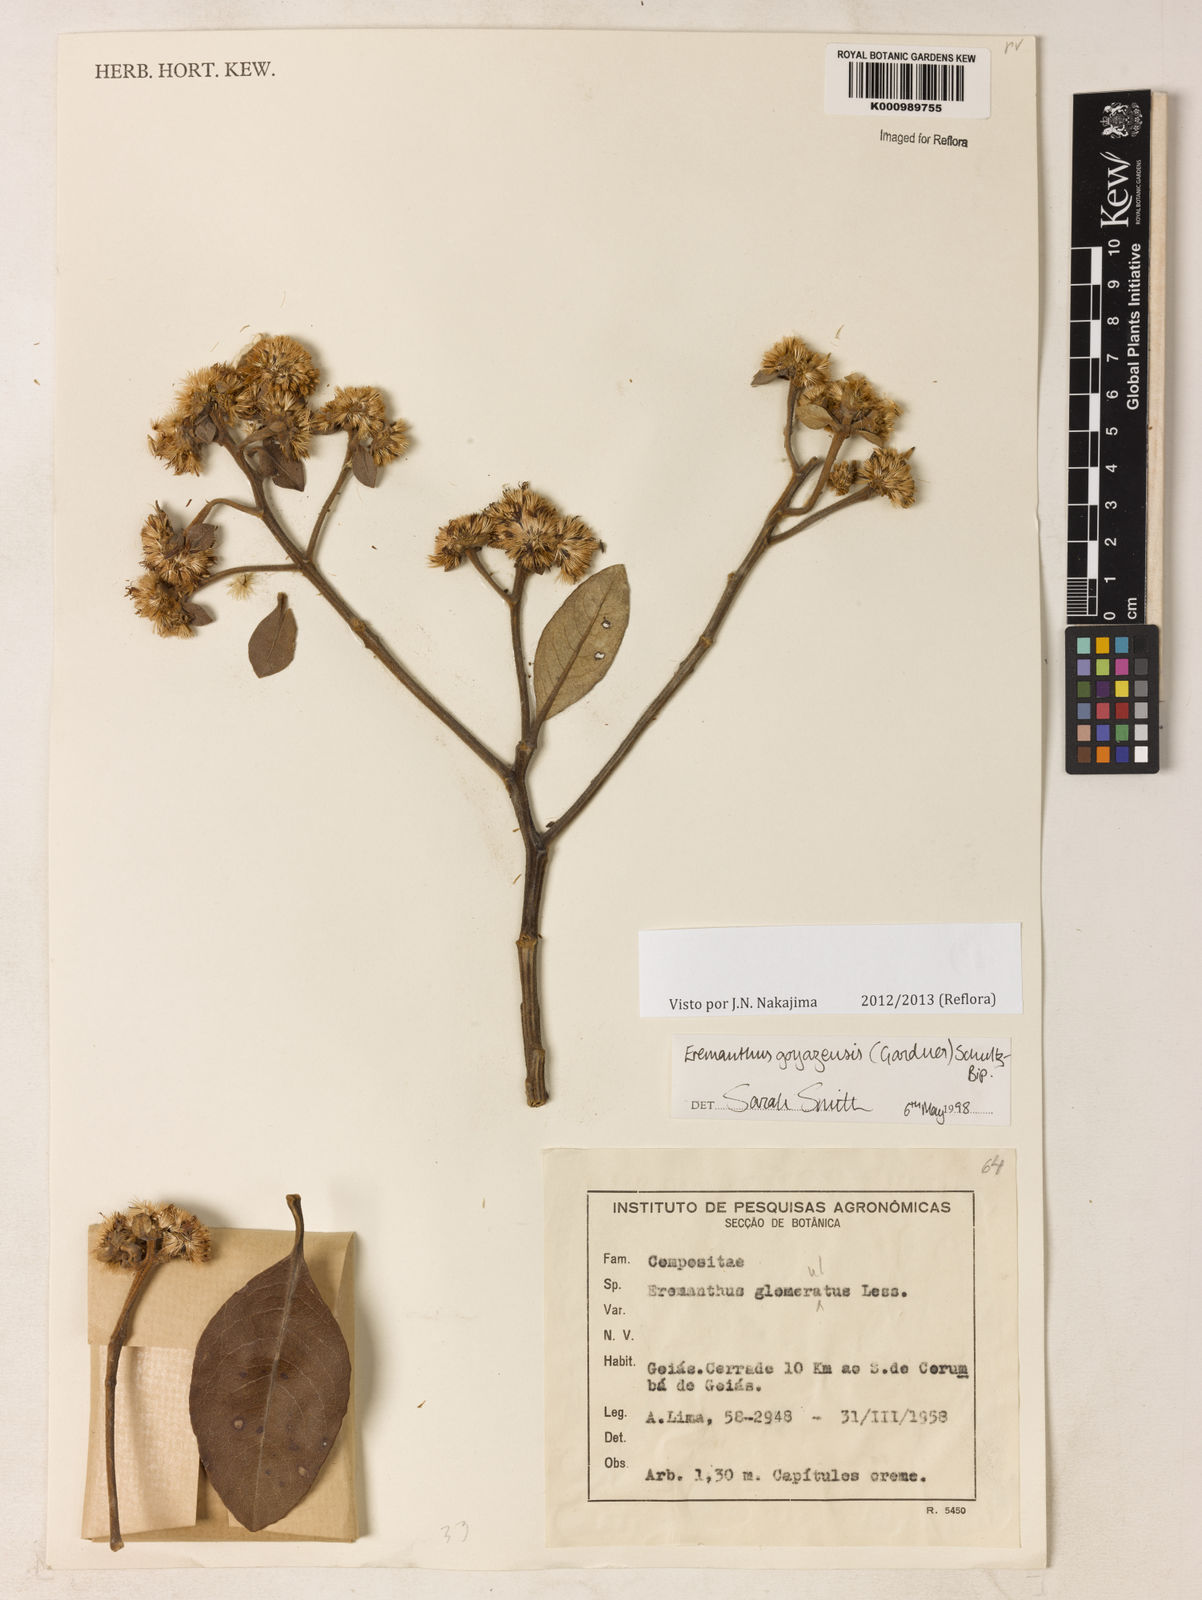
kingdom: Plantae
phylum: Tracheophyta
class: Magnoliopsida
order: Asterales
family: Asteraceae
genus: Eremanthus
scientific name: Eremanthus goyazensis
